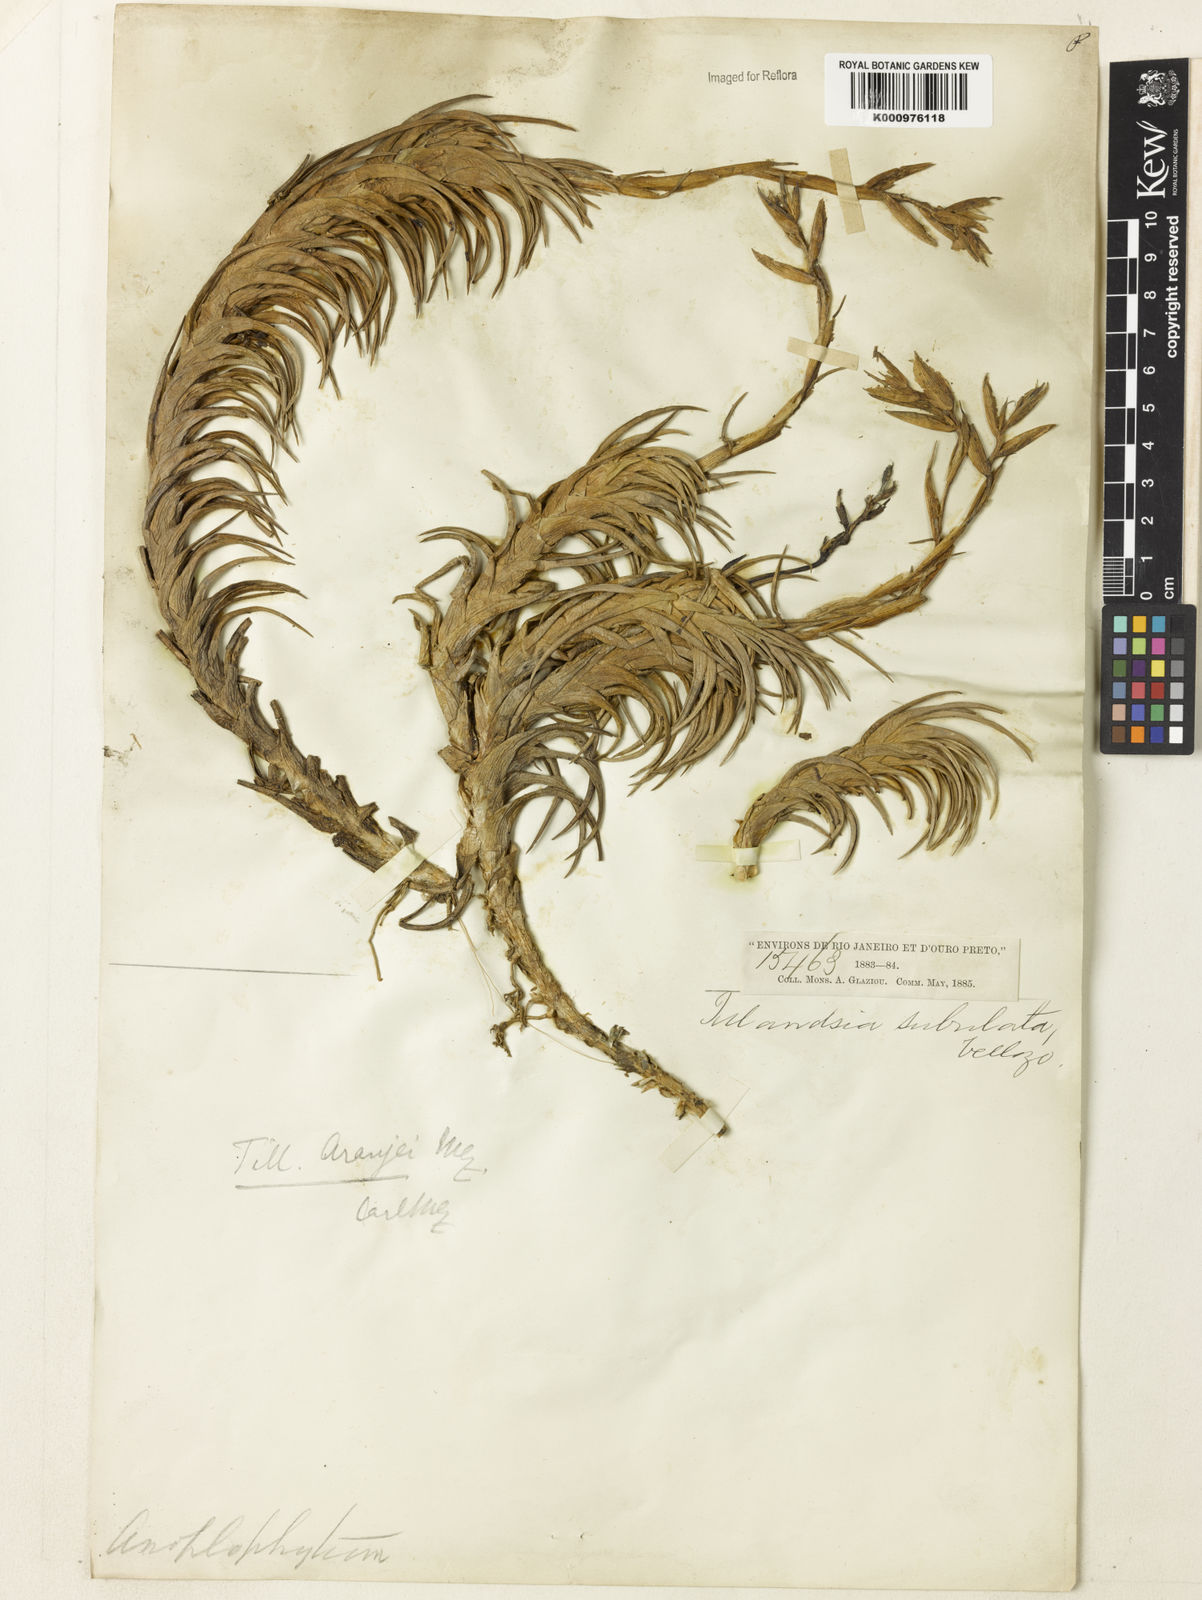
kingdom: Plantae
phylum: Tracheophyta
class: Liliopsida
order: Poales
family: Bromeliaceae
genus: Tillandsia
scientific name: Tillandsia araujei
